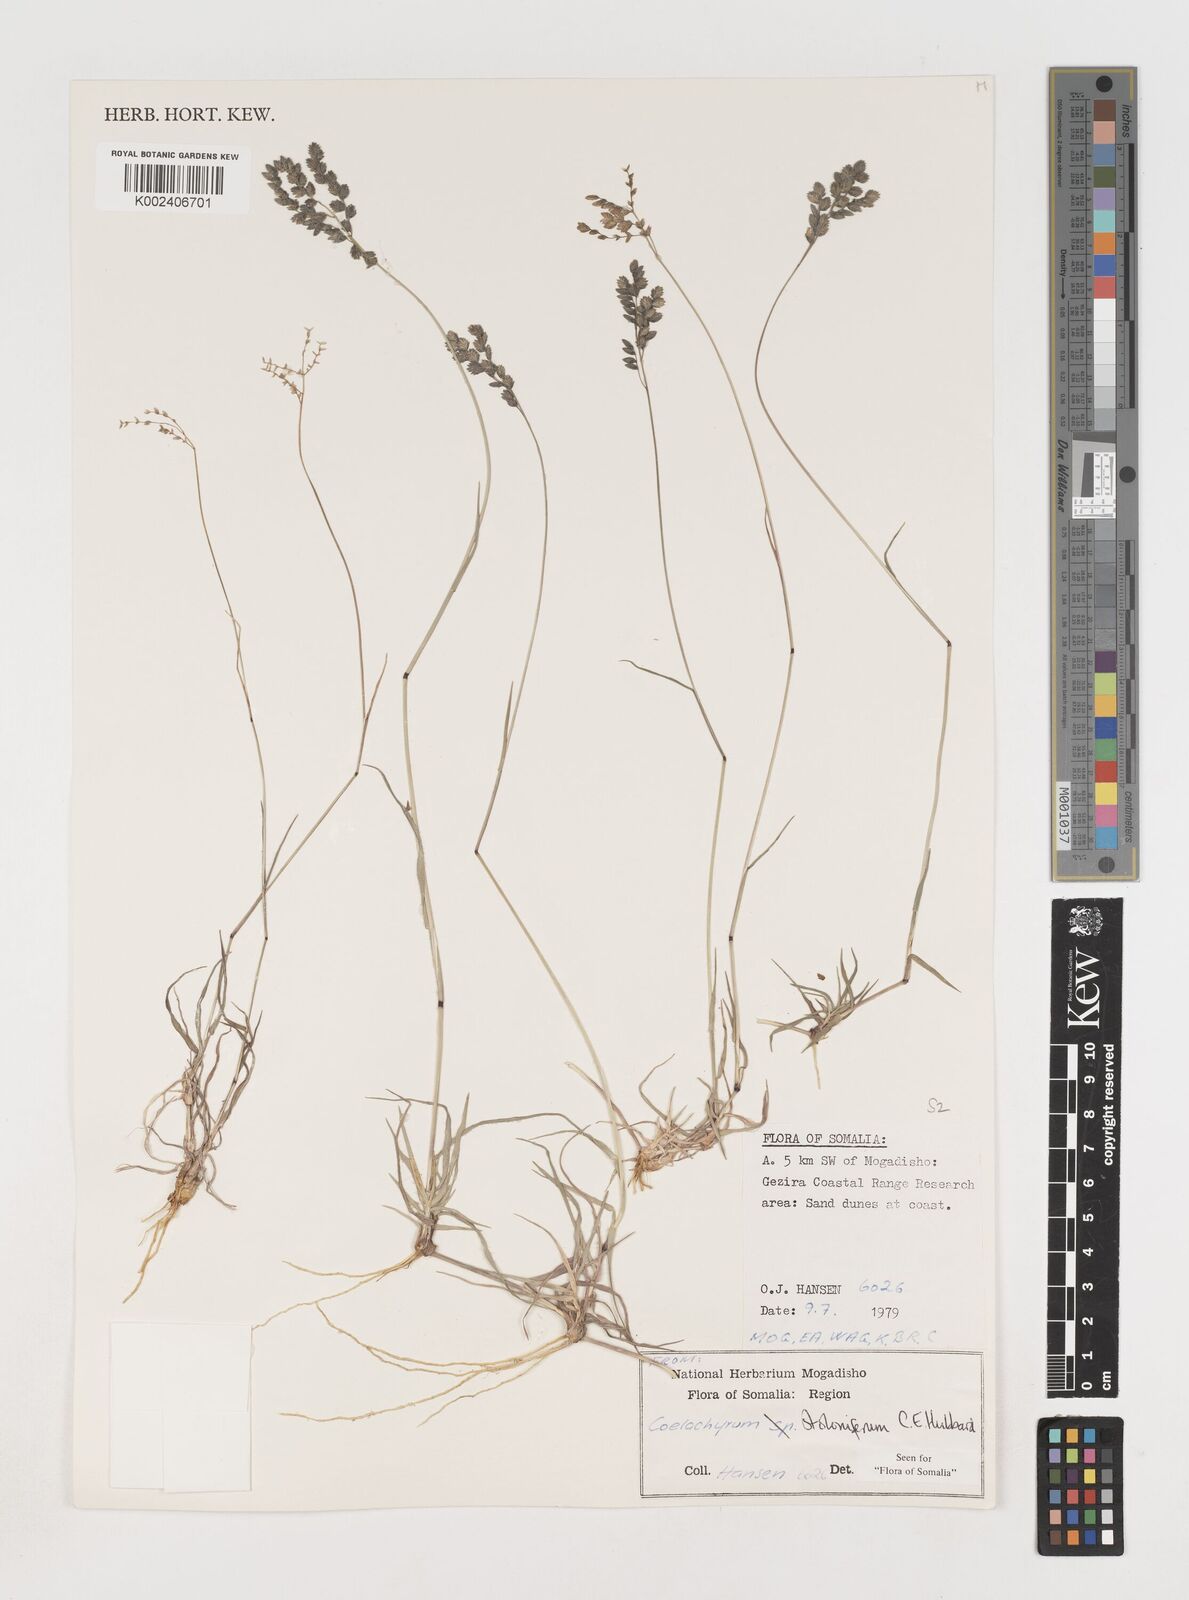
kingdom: Plantae
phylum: Tracheophyta
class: Liliopsida
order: Poales
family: Poaceae
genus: Coelachyrum
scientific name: Coelachyrum piercei
